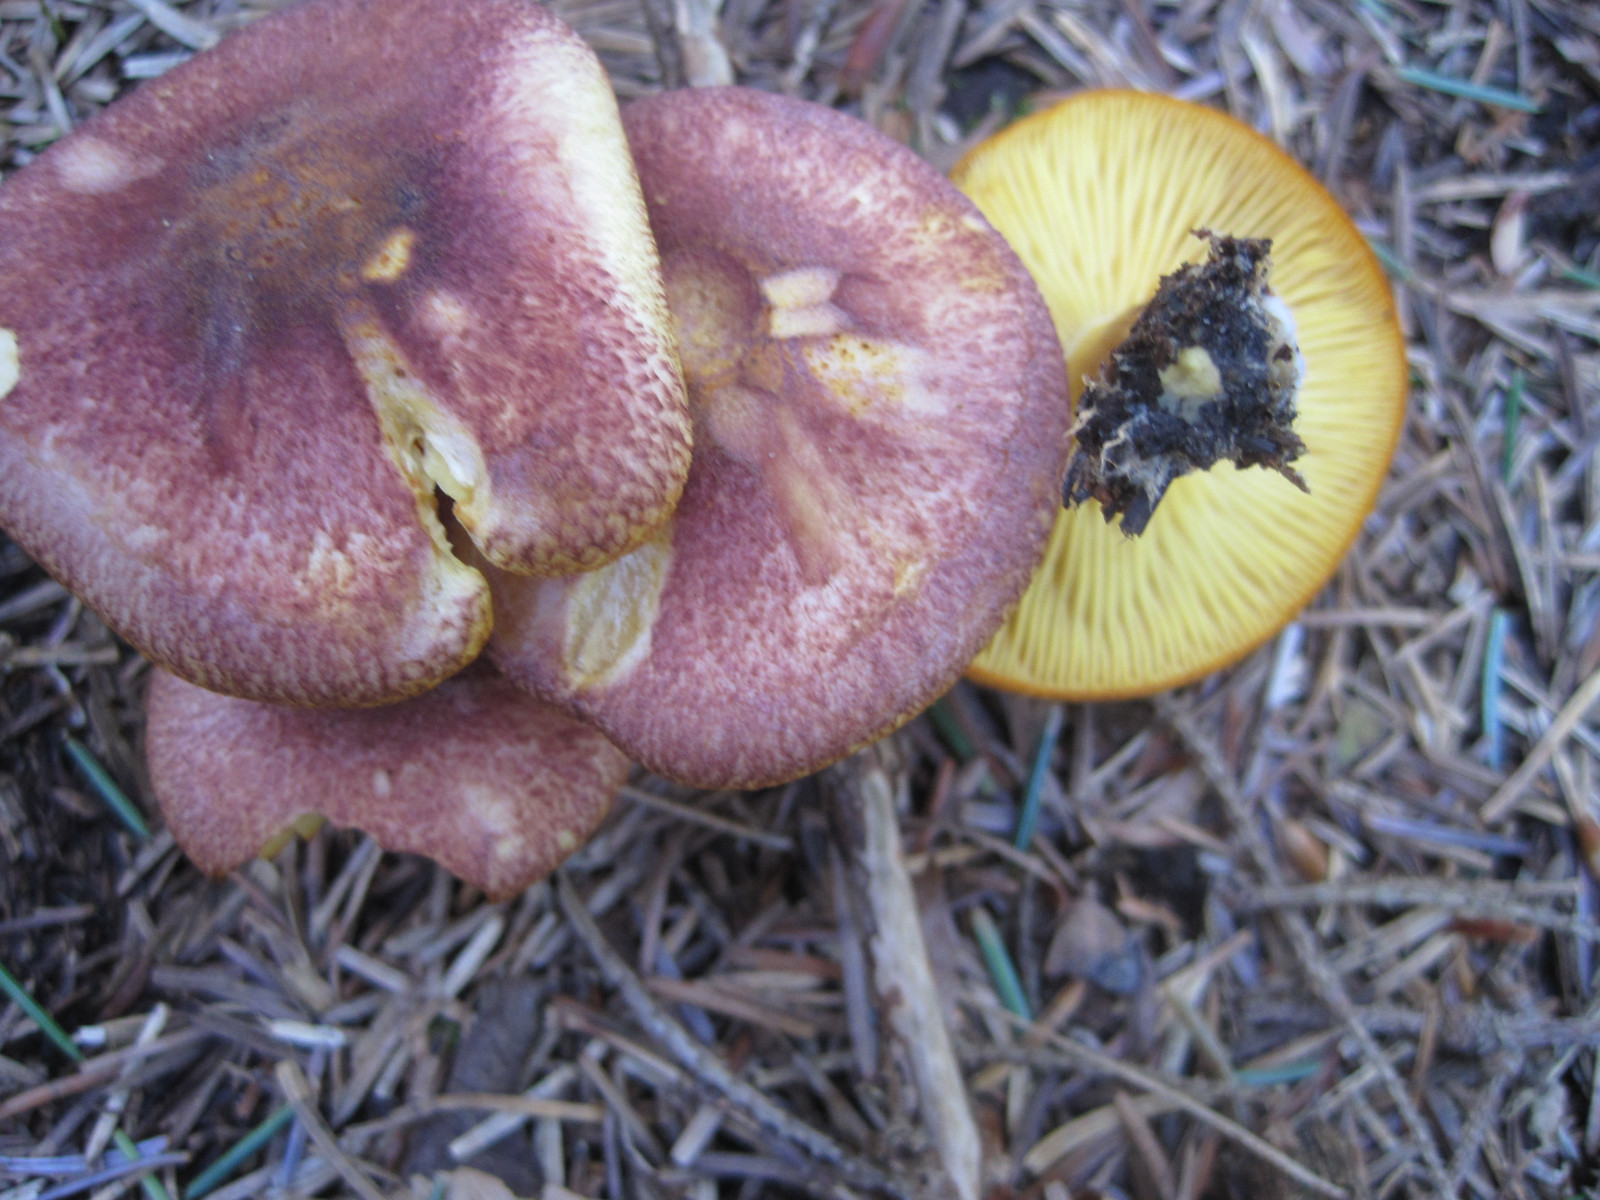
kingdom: Fungi
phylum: Basidiomycota
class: Agaricomycetes
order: Agaricales
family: Tricholomataceae
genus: Tricholomopsis
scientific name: Tricholomopsis rutilans
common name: purpur-væbnerhat
